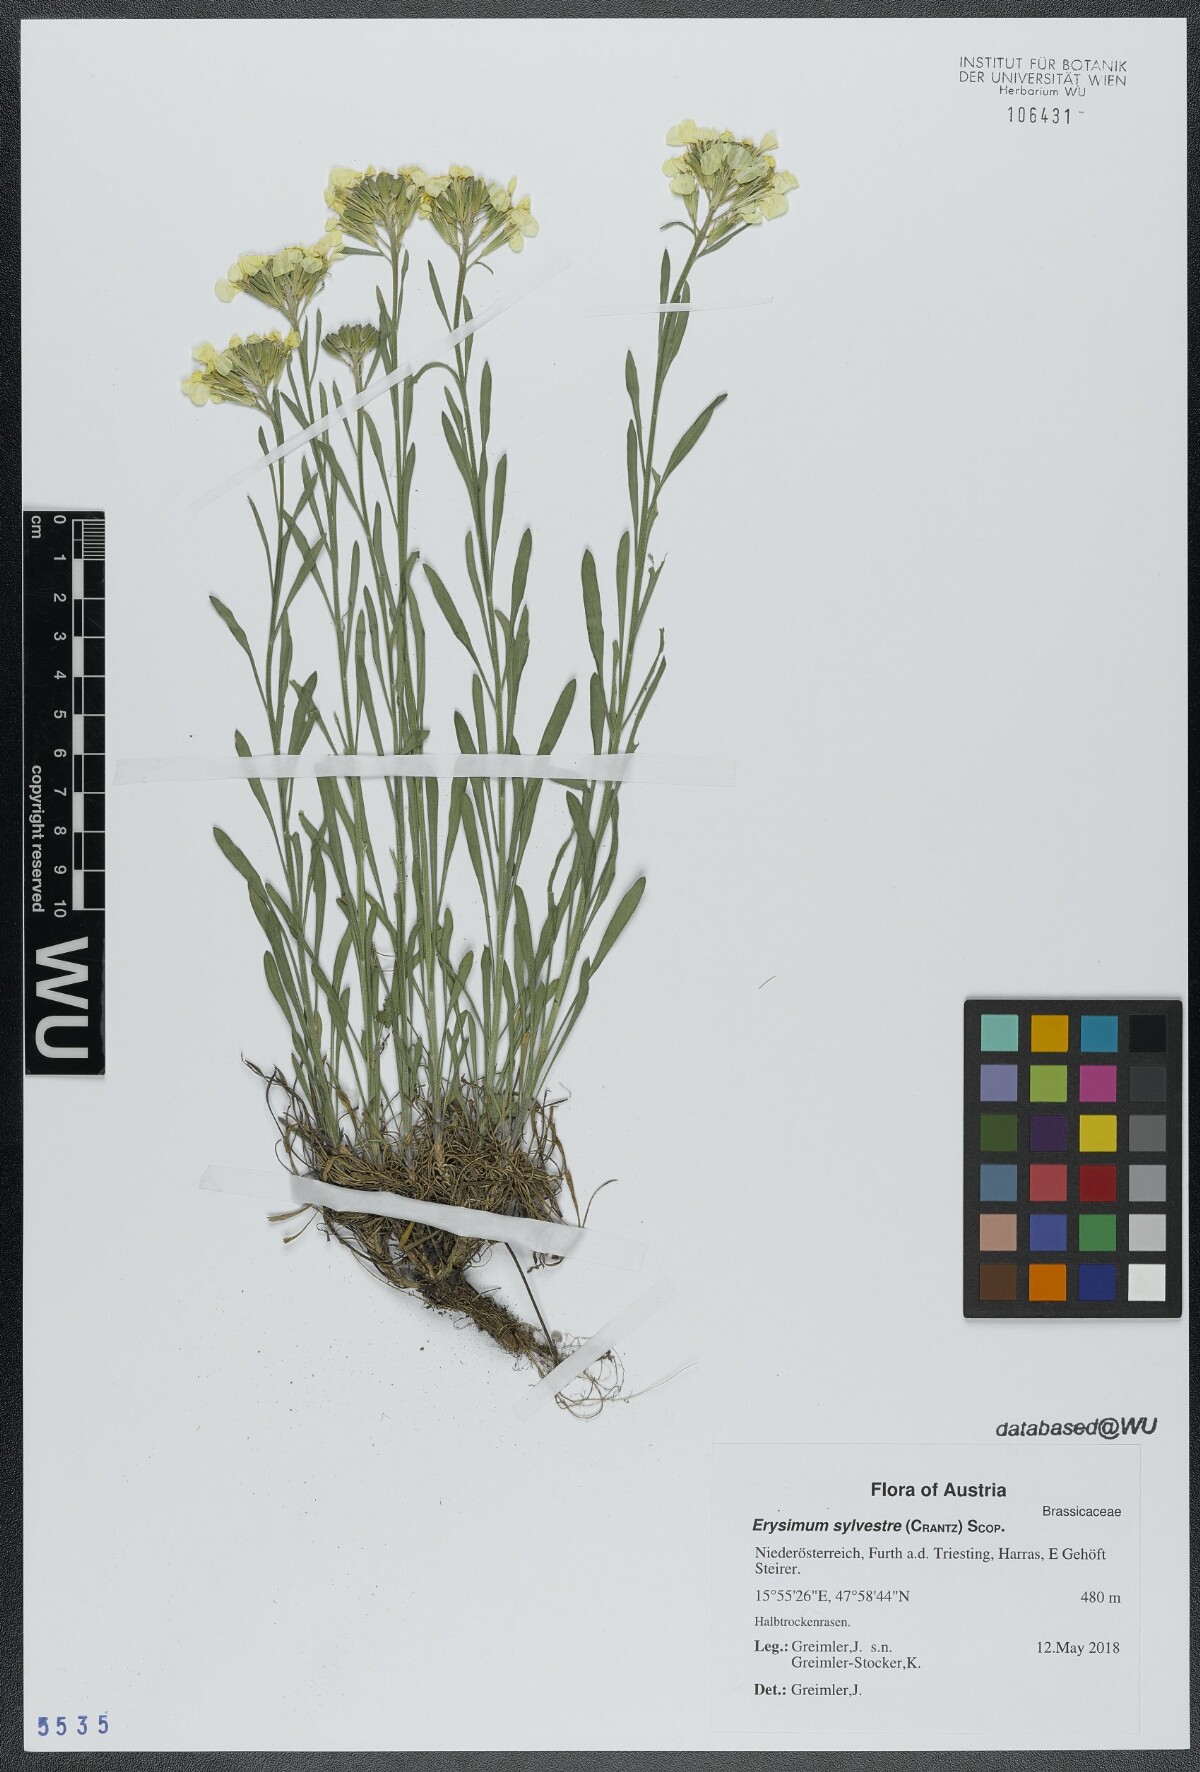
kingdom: Plantae
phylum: Tracheophyta
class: Magnoliopsida
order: Brassicales
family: Brassicaceae
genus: Erysimum
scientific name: Erysimum sylvestre
